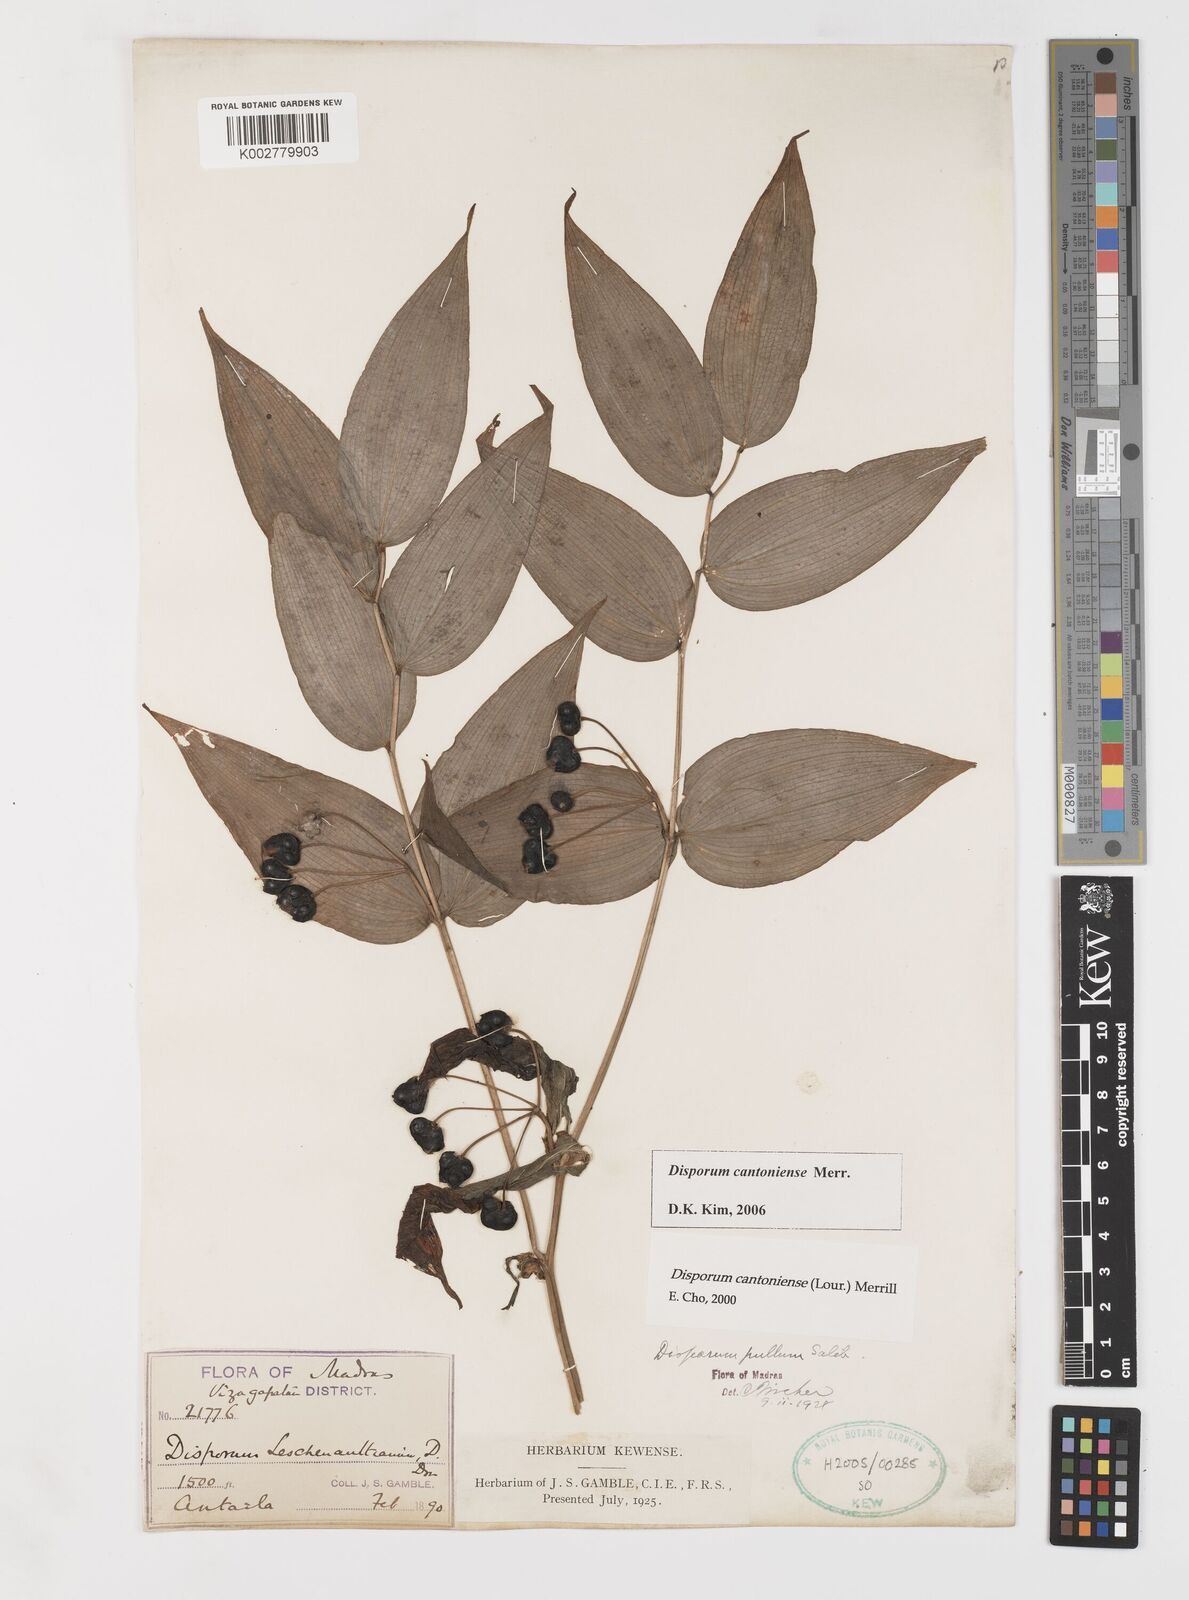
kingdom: Plantae
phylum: Tracheophyta
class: Liliopsida
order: Liliales
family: Colchicaceae
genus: Disporum
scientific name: Disporum cantoniense
